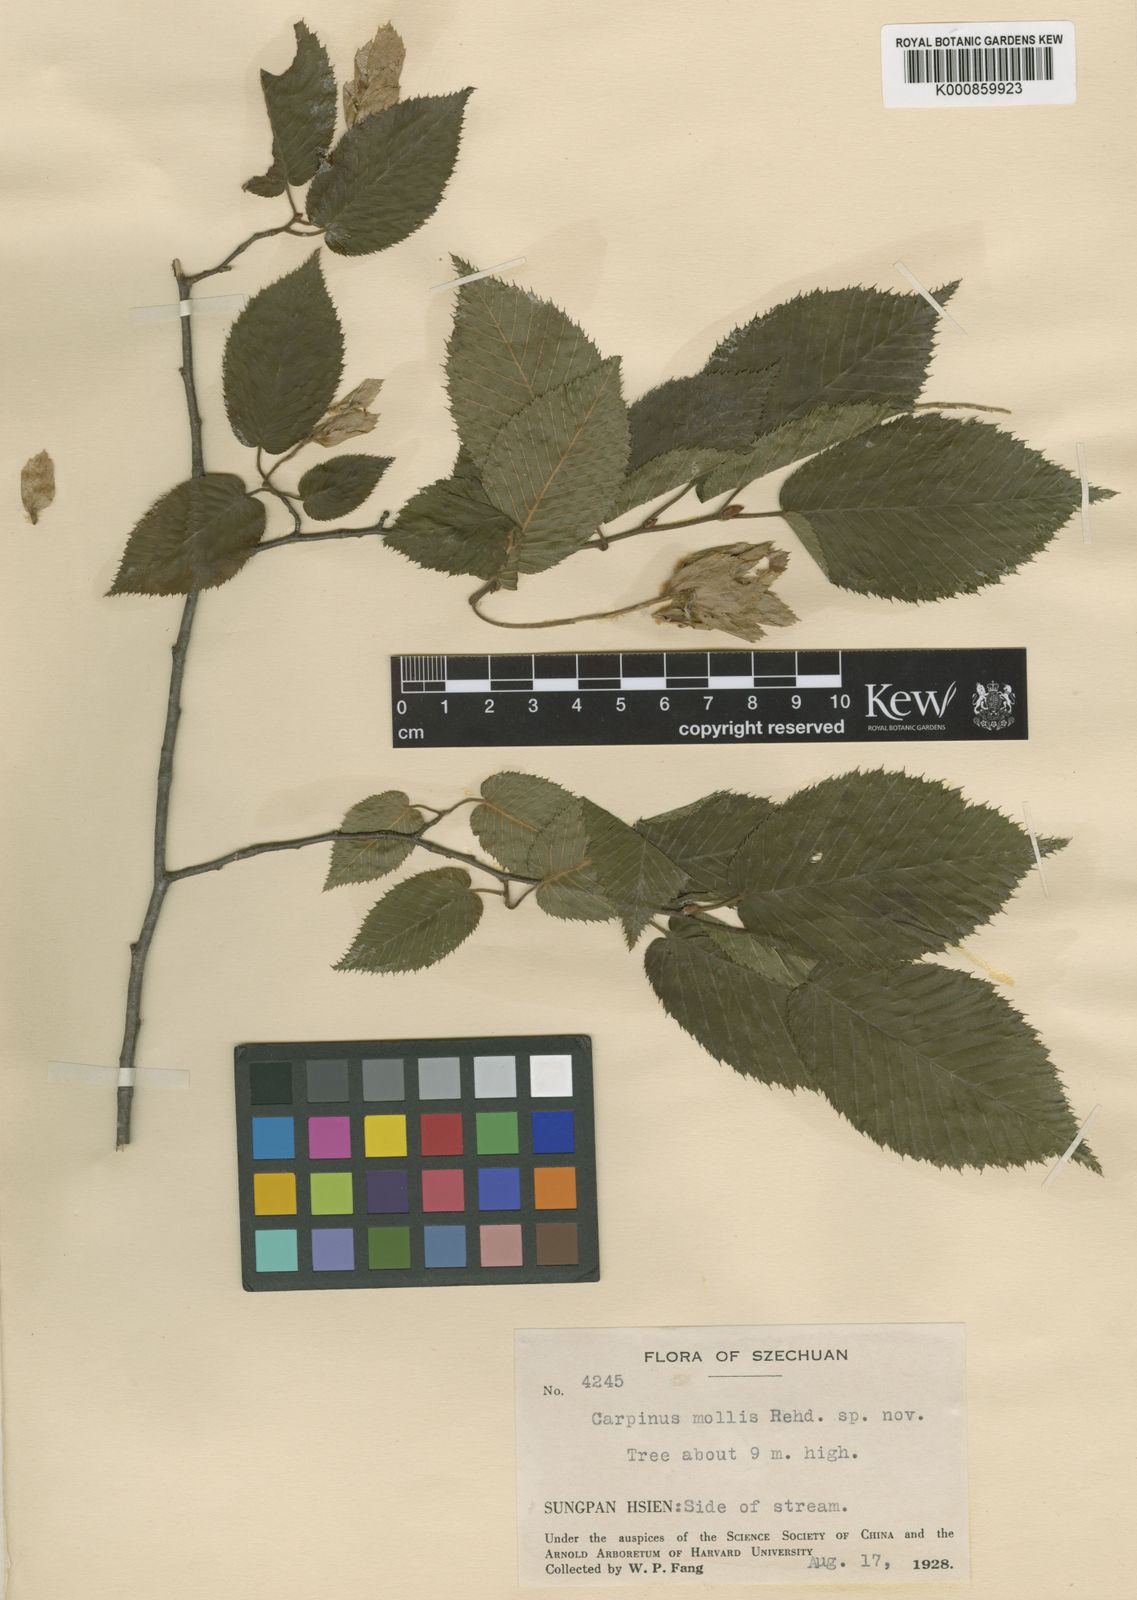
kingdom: Plantae
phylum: Tracheophyta
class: Magnoliopsida
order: Fagales
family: Betulaceae
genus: Carpinus
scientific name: Carpinus cordata
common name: Sawa hornbeam
